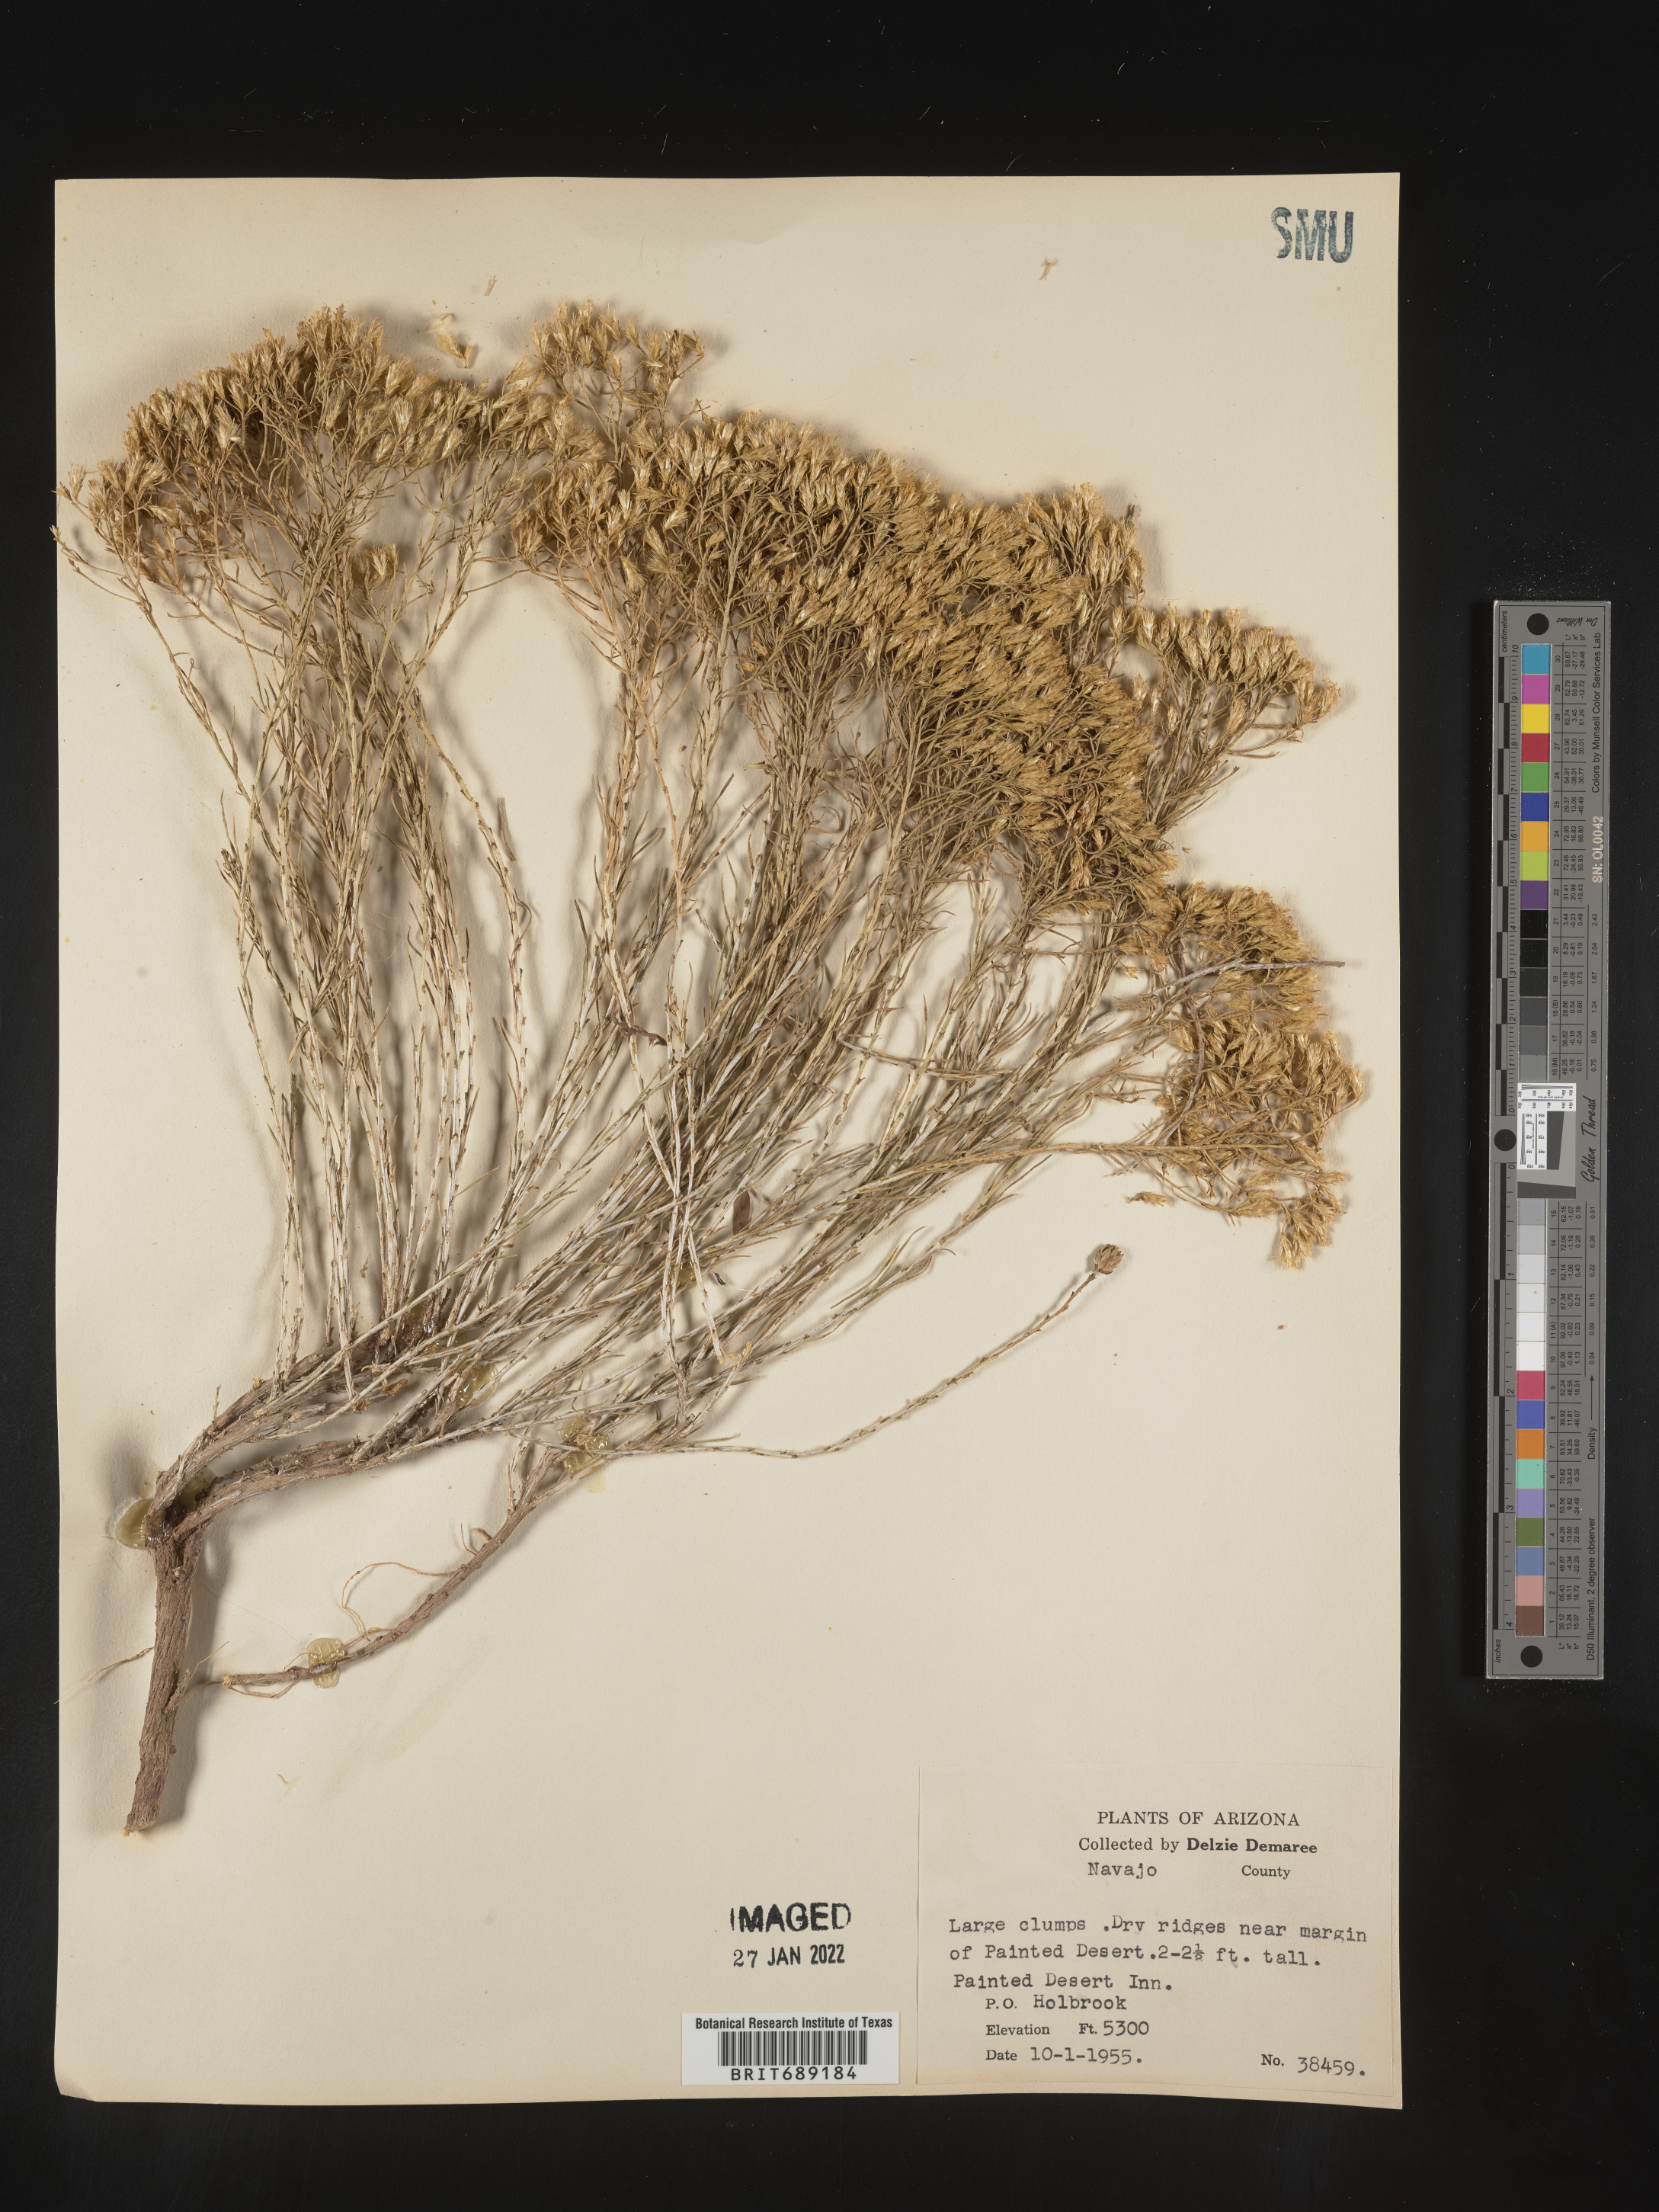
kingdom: Plantae
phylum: Tracheophyta
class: Magnoliopsida
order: Asterales
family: Asteraceae
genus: Chrysothamnus
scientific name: Chrysothamnus
